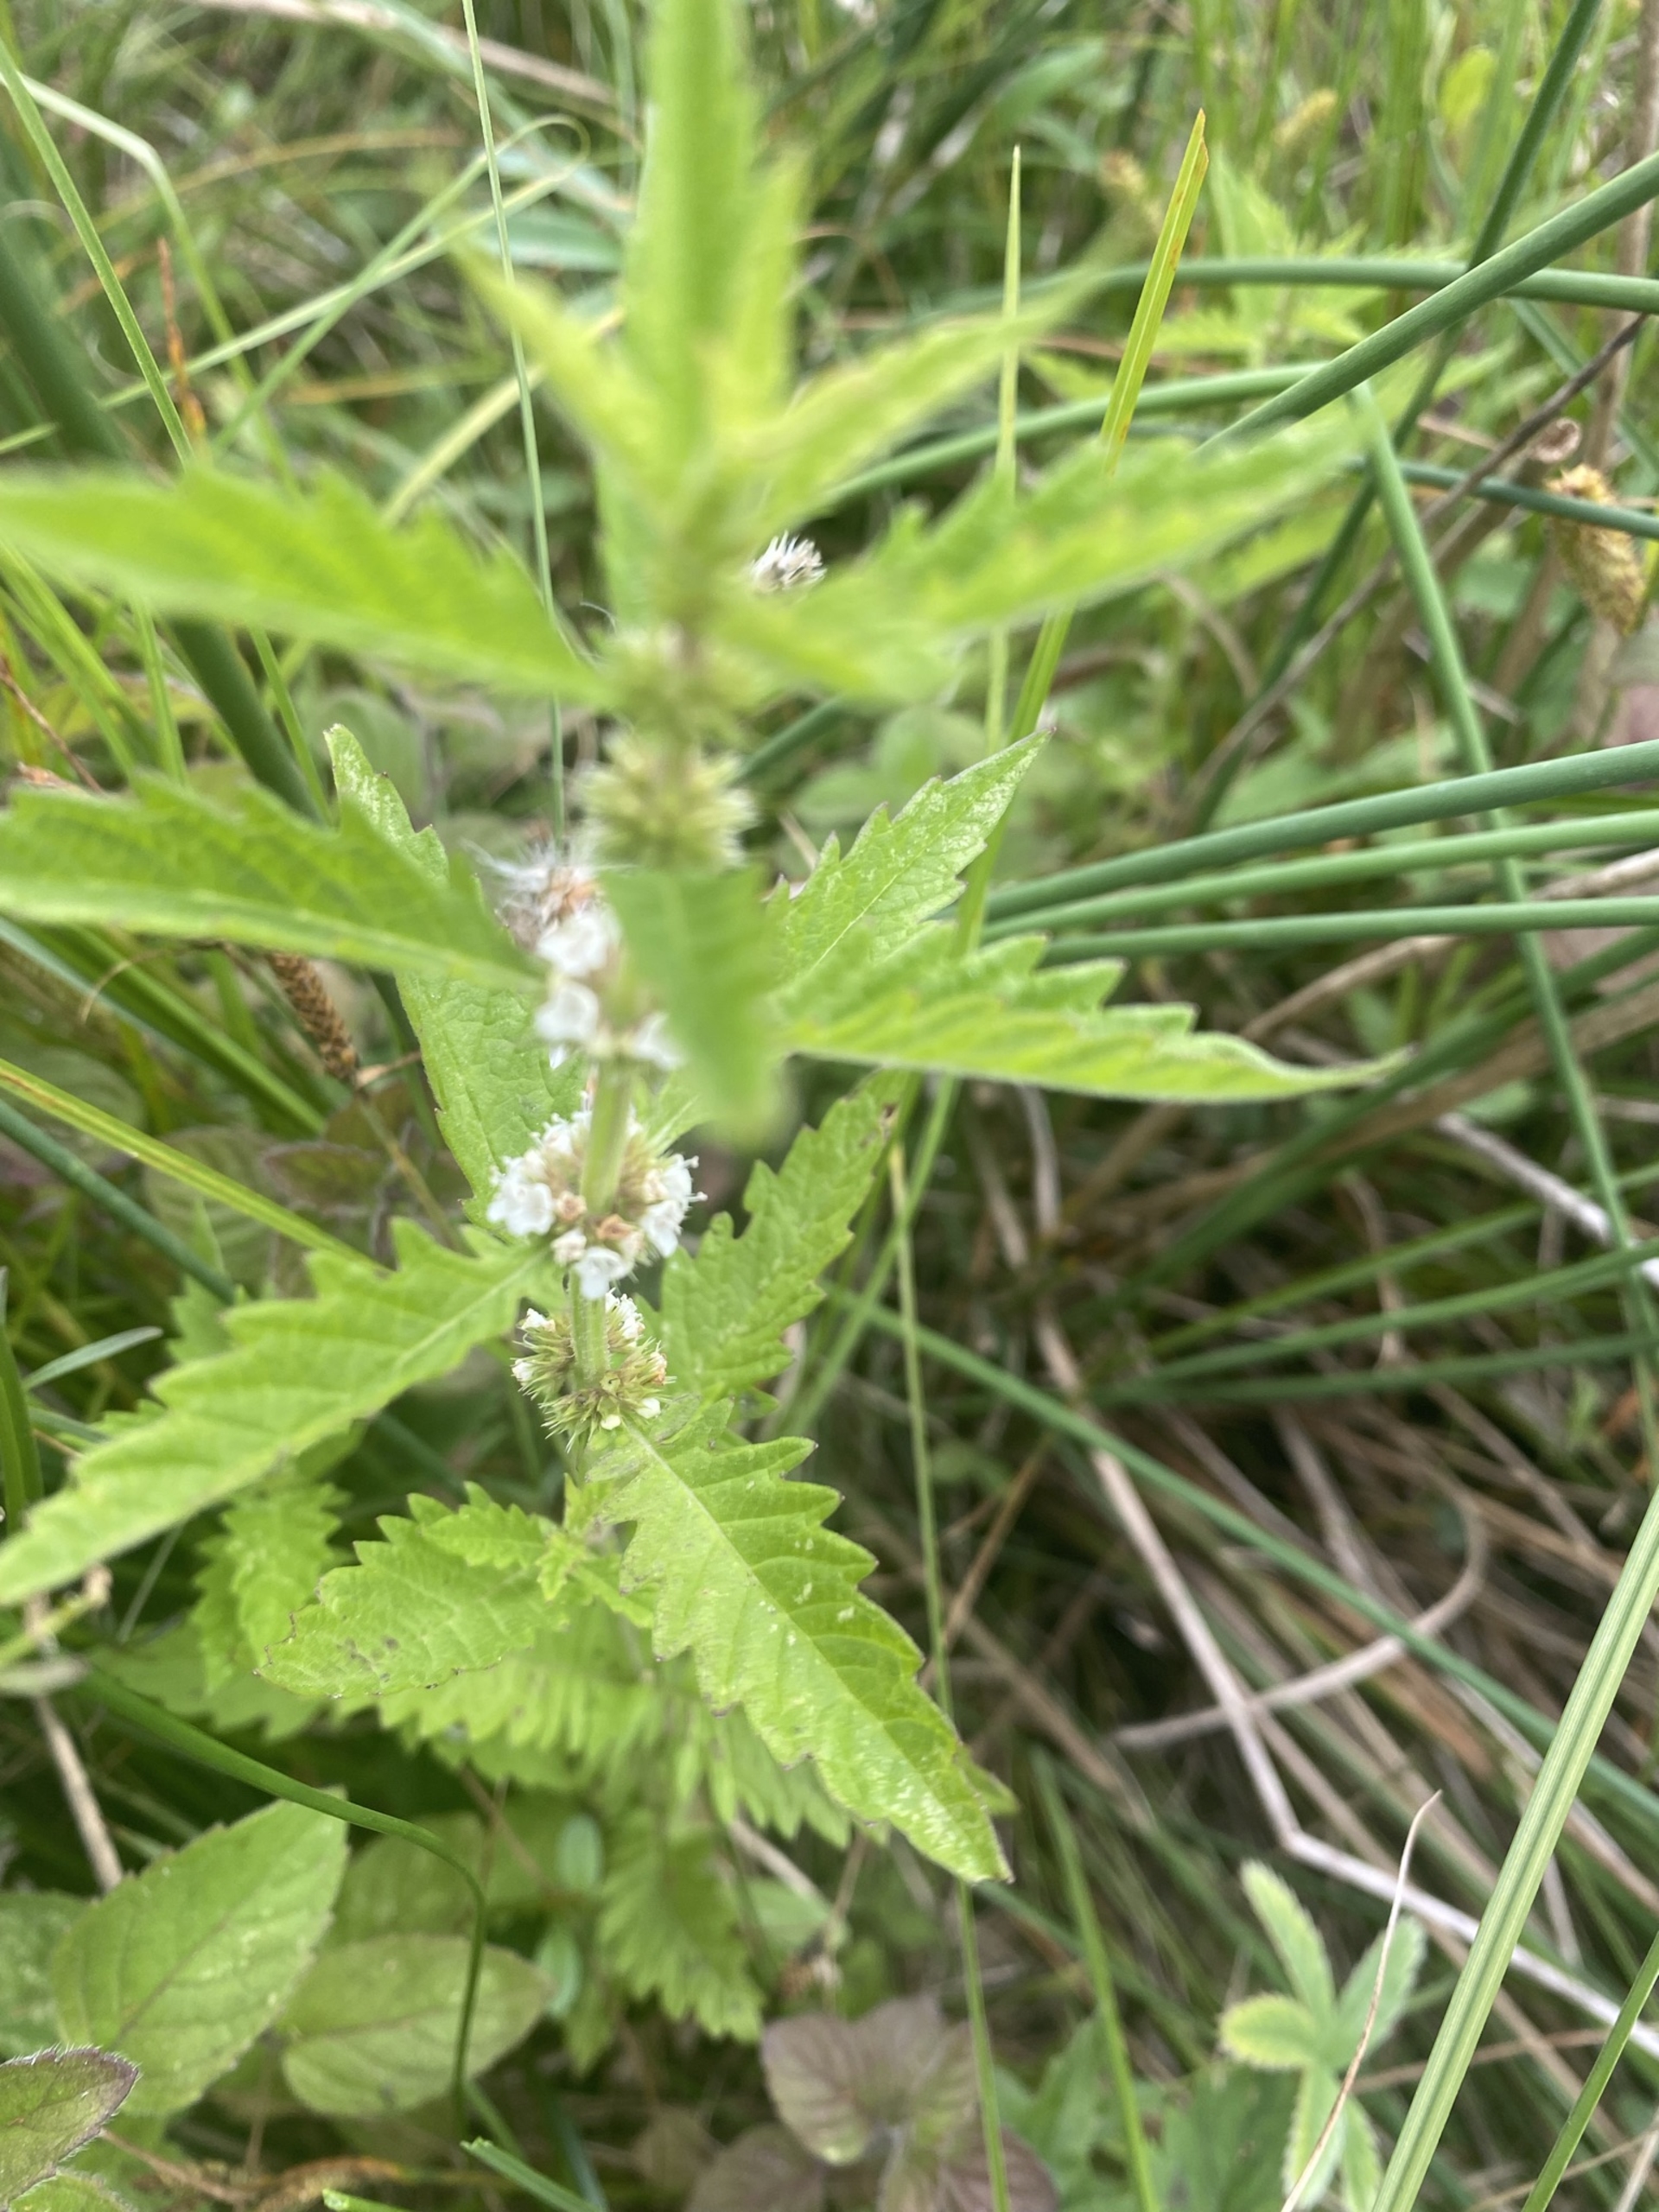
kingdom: Plantae
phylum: Tracheophyta
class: Magnoliopsida
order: Lamiales
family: Lamiaceae
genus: Lycopus
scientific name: Lycopus europaeus
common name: Sværtevæld
